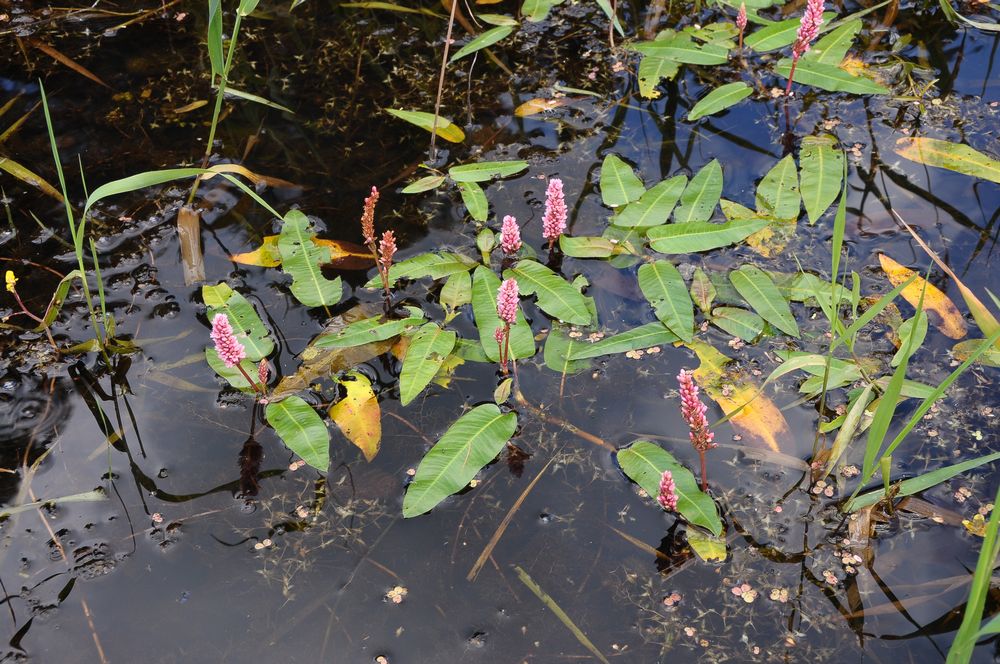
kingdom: Plantae
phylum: Tracheophyta
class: Magnoliopsida
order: Caryophyllales
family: Polygonaceae
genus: Persicaria
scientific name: Persicaria amphibia
